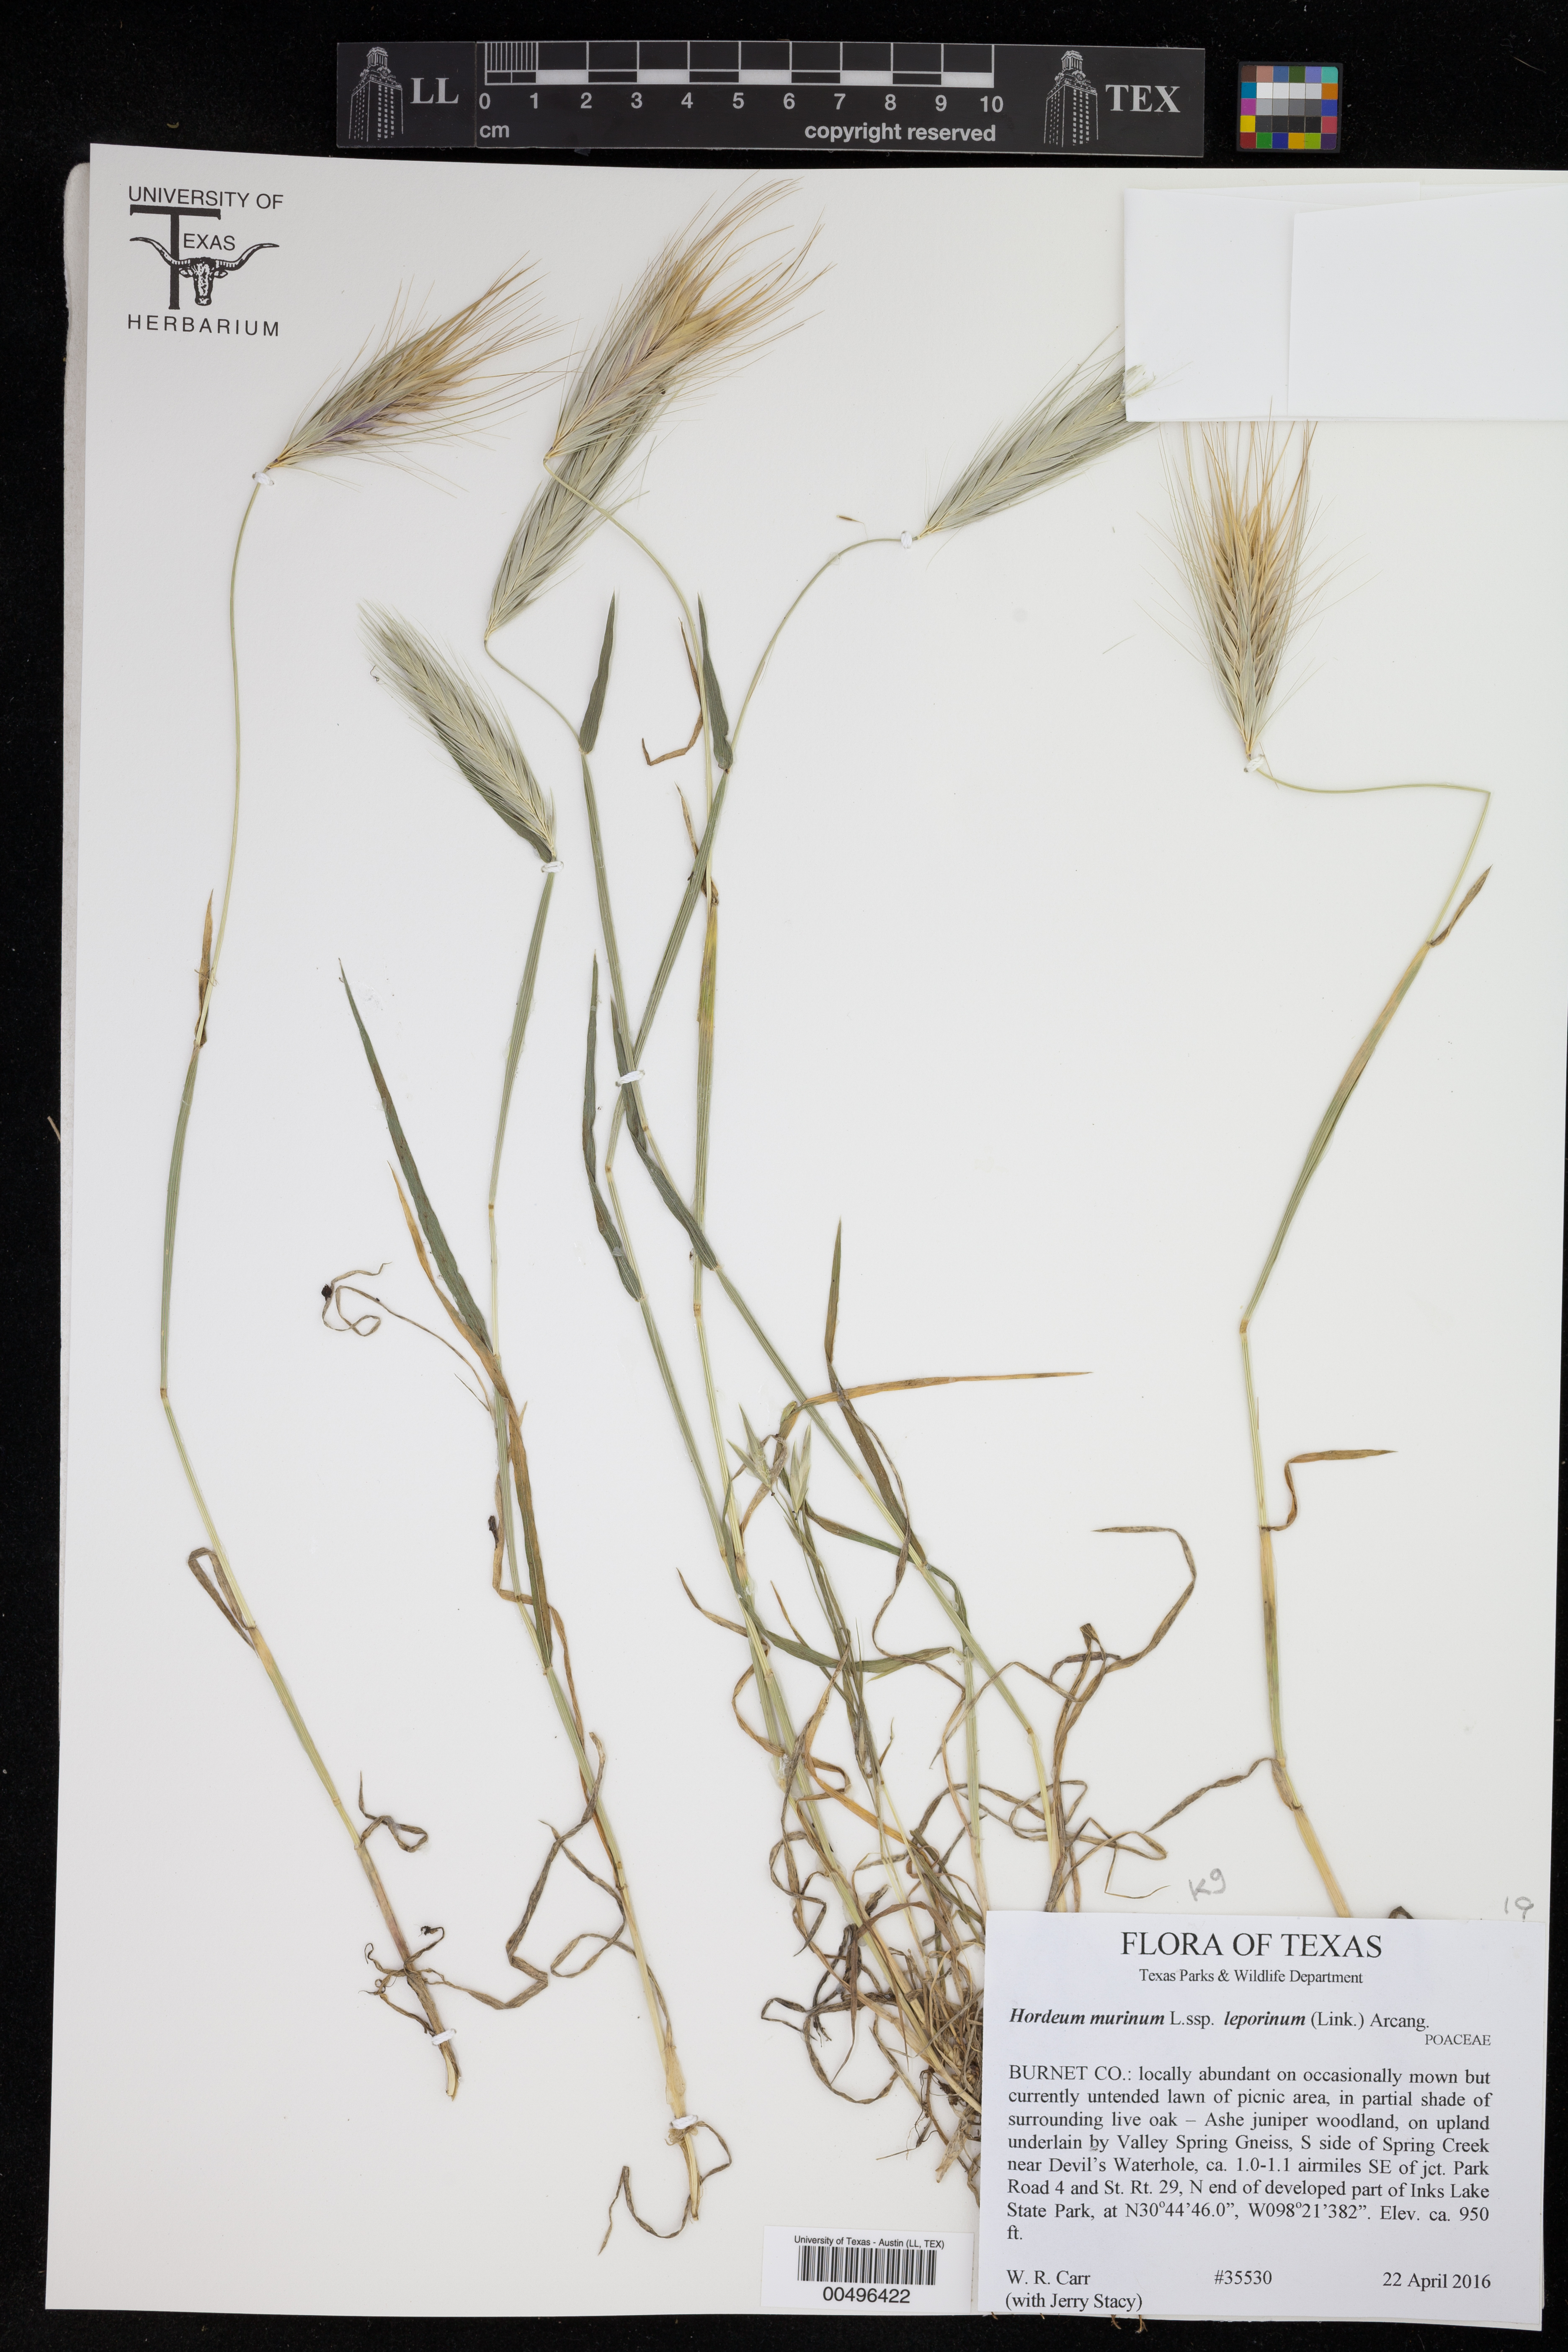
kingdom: Plantae
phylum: Tracheophyta
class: Liliopsida
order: Poales
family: Poaceae
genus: Hordeum
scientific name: Hordeum murinum
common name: Wall barley
